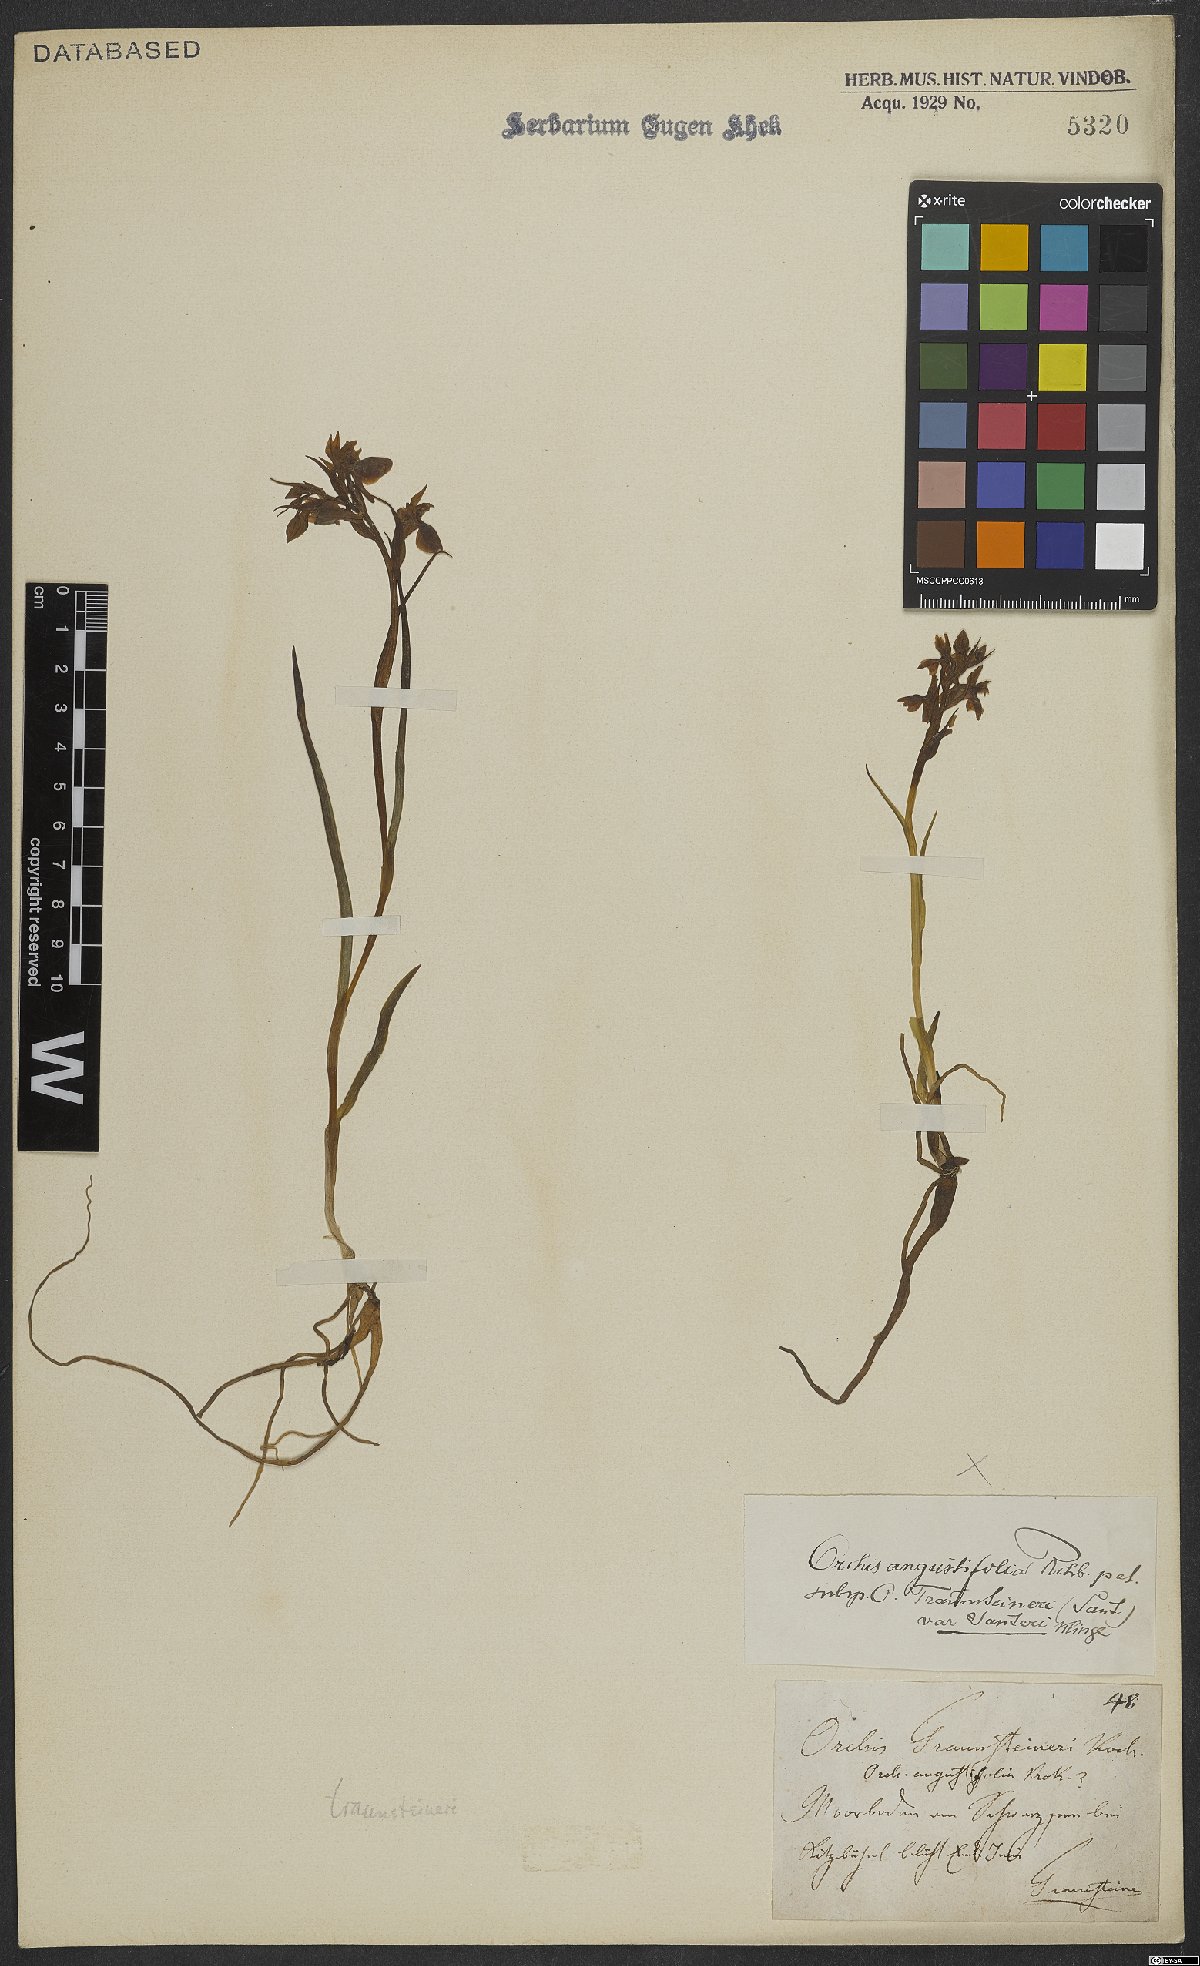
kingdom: Plantae
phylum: Tracheophyta
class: Liliopsida
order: Asparagales
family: Orchidaceae
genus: Dactylorhiza
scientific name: Dactylorhiza incarnata
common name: Early marsh-orchid
